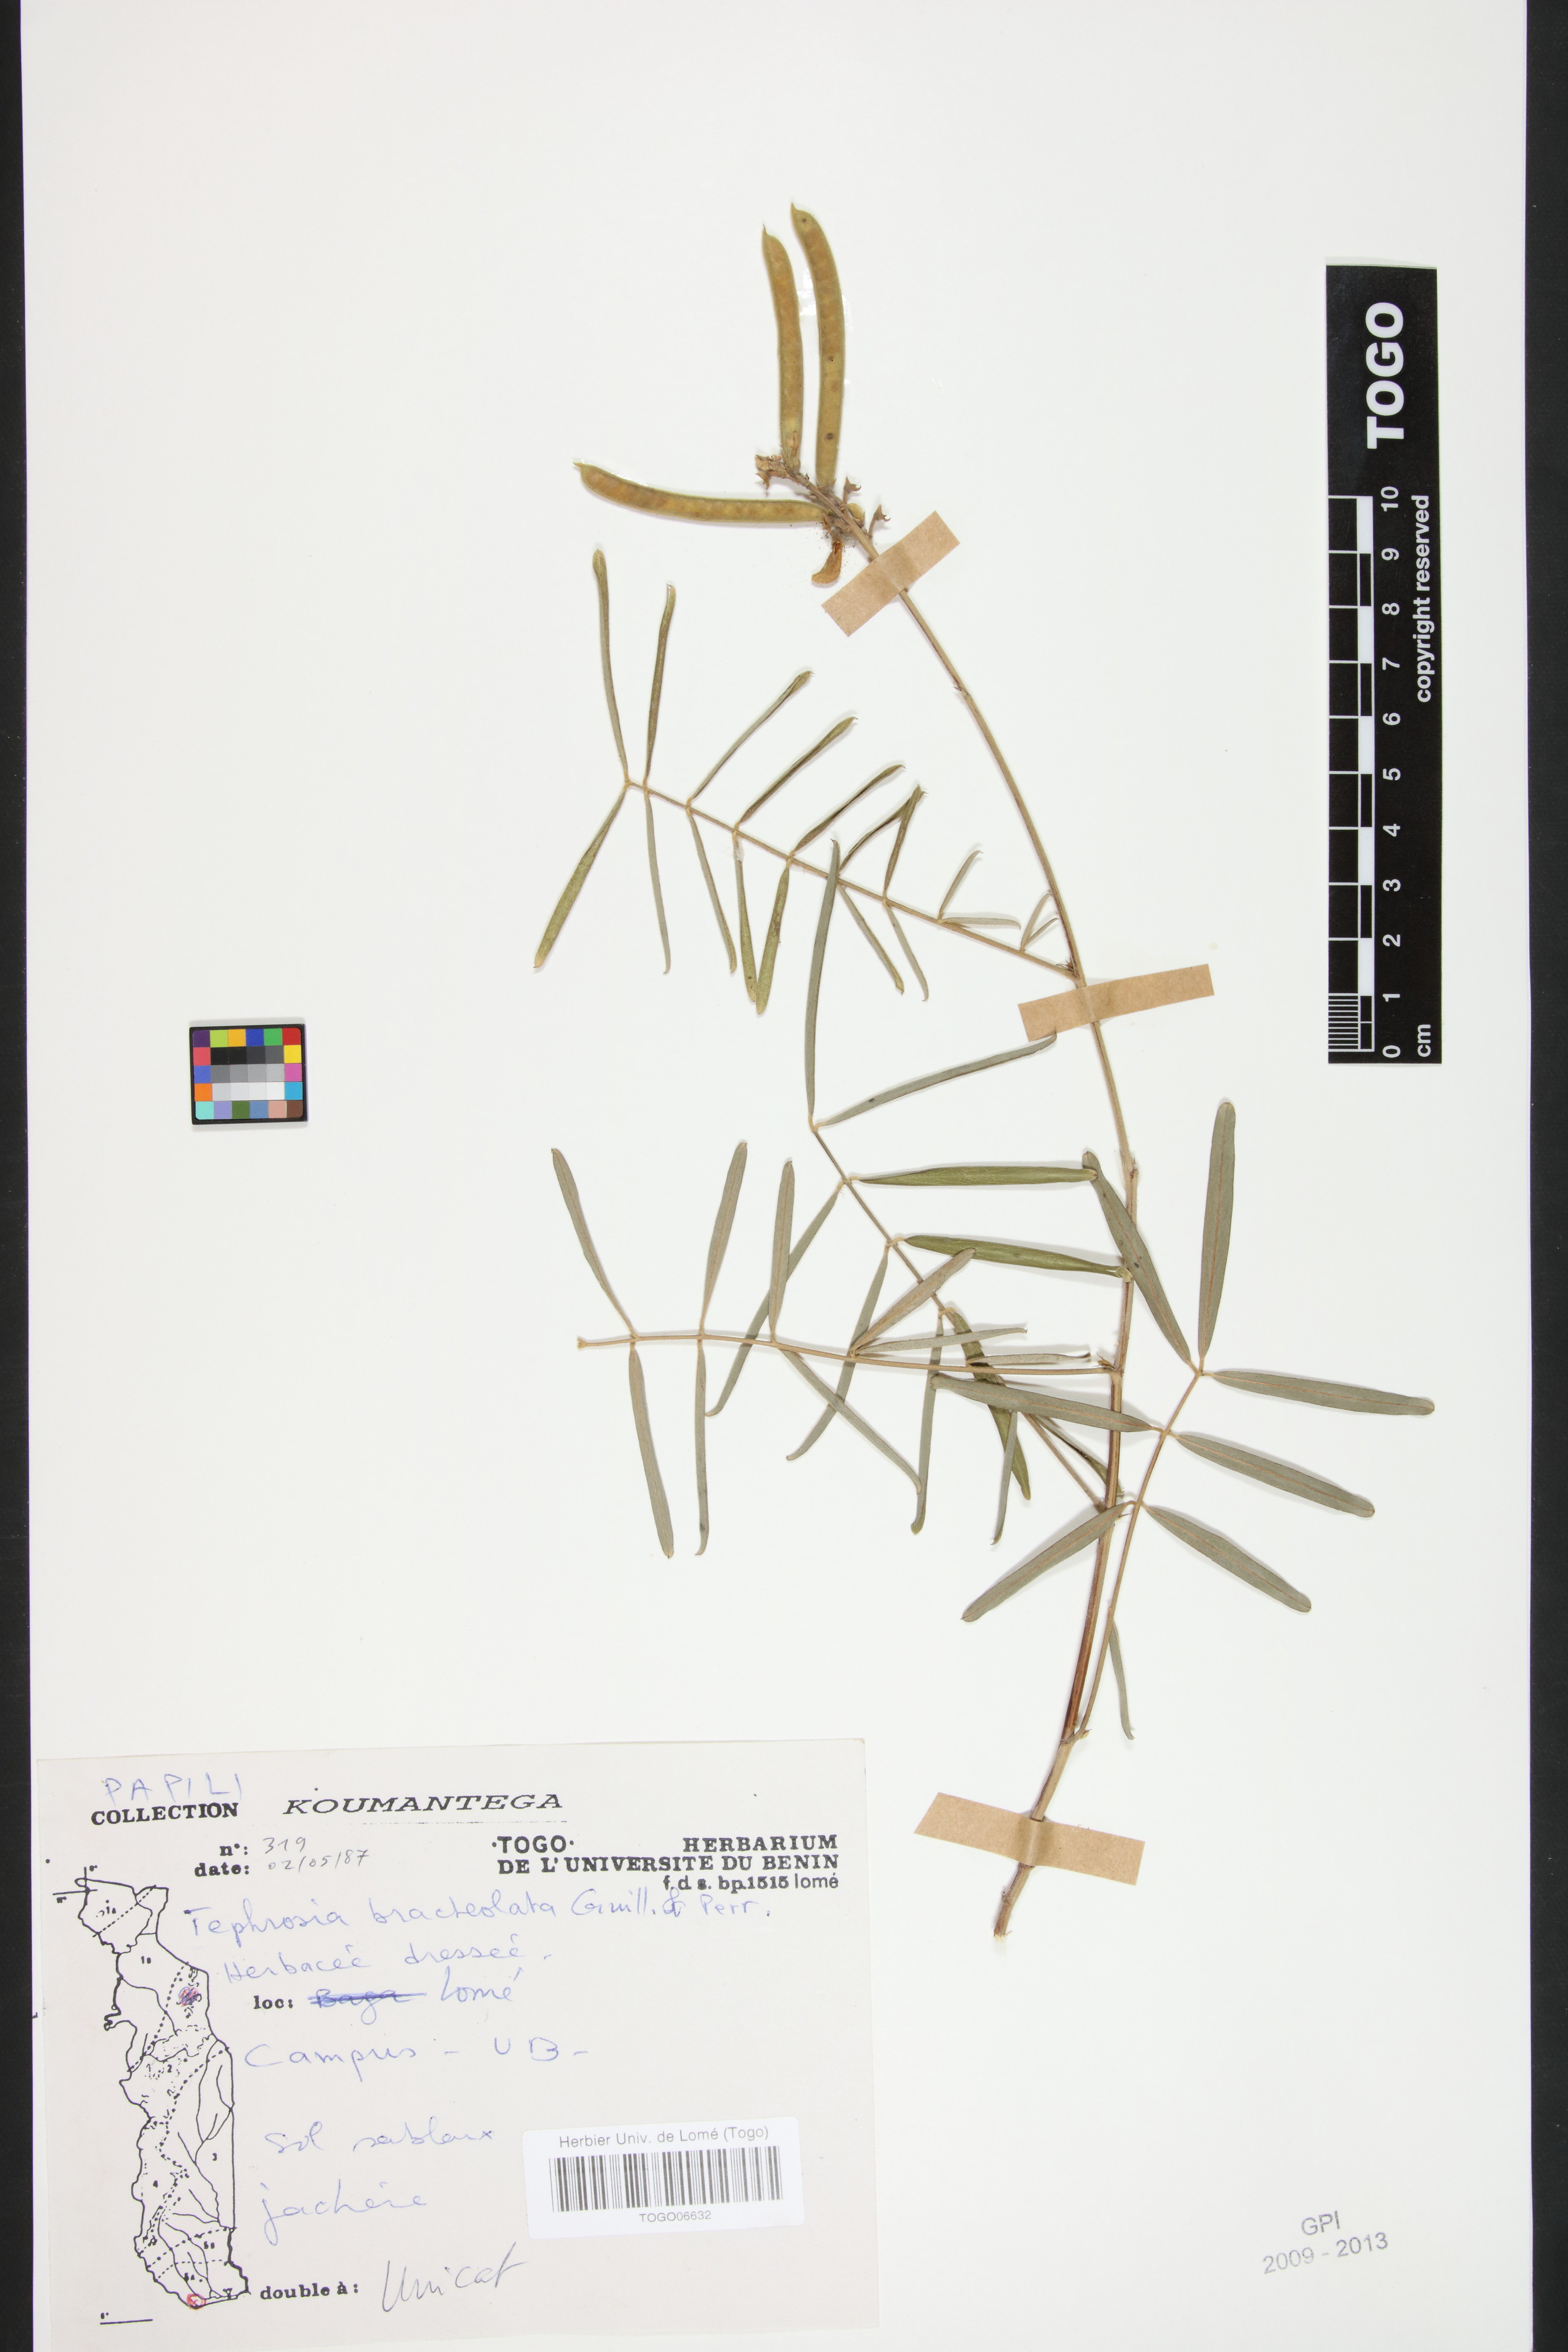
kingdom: Plantae
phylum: Tracheophyta
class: Magnoliopsida
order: Fabales
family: Fabaceae
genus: Tephrosia
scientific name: Tephrosia bracteolata
